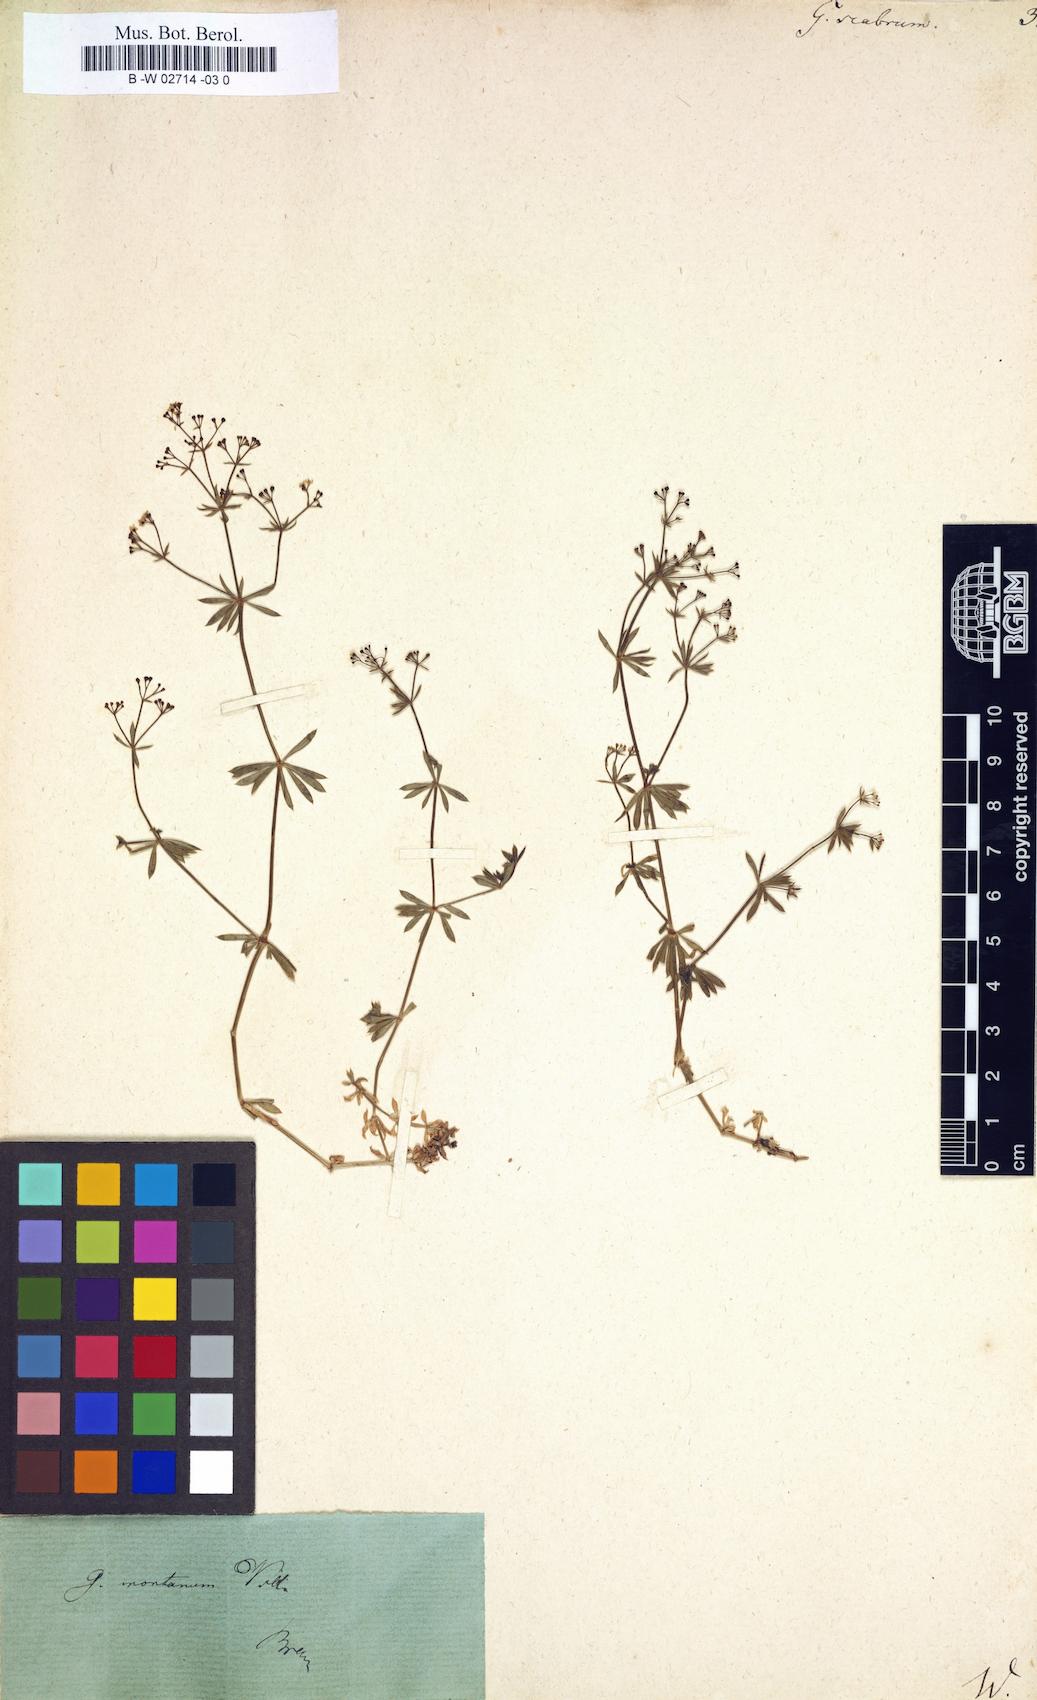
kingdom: Plantae
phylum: Tracheophyta
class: Magnoliopsida
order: Gentianales
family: Rubiaceae
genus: Galium
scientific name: Galium scabrum
